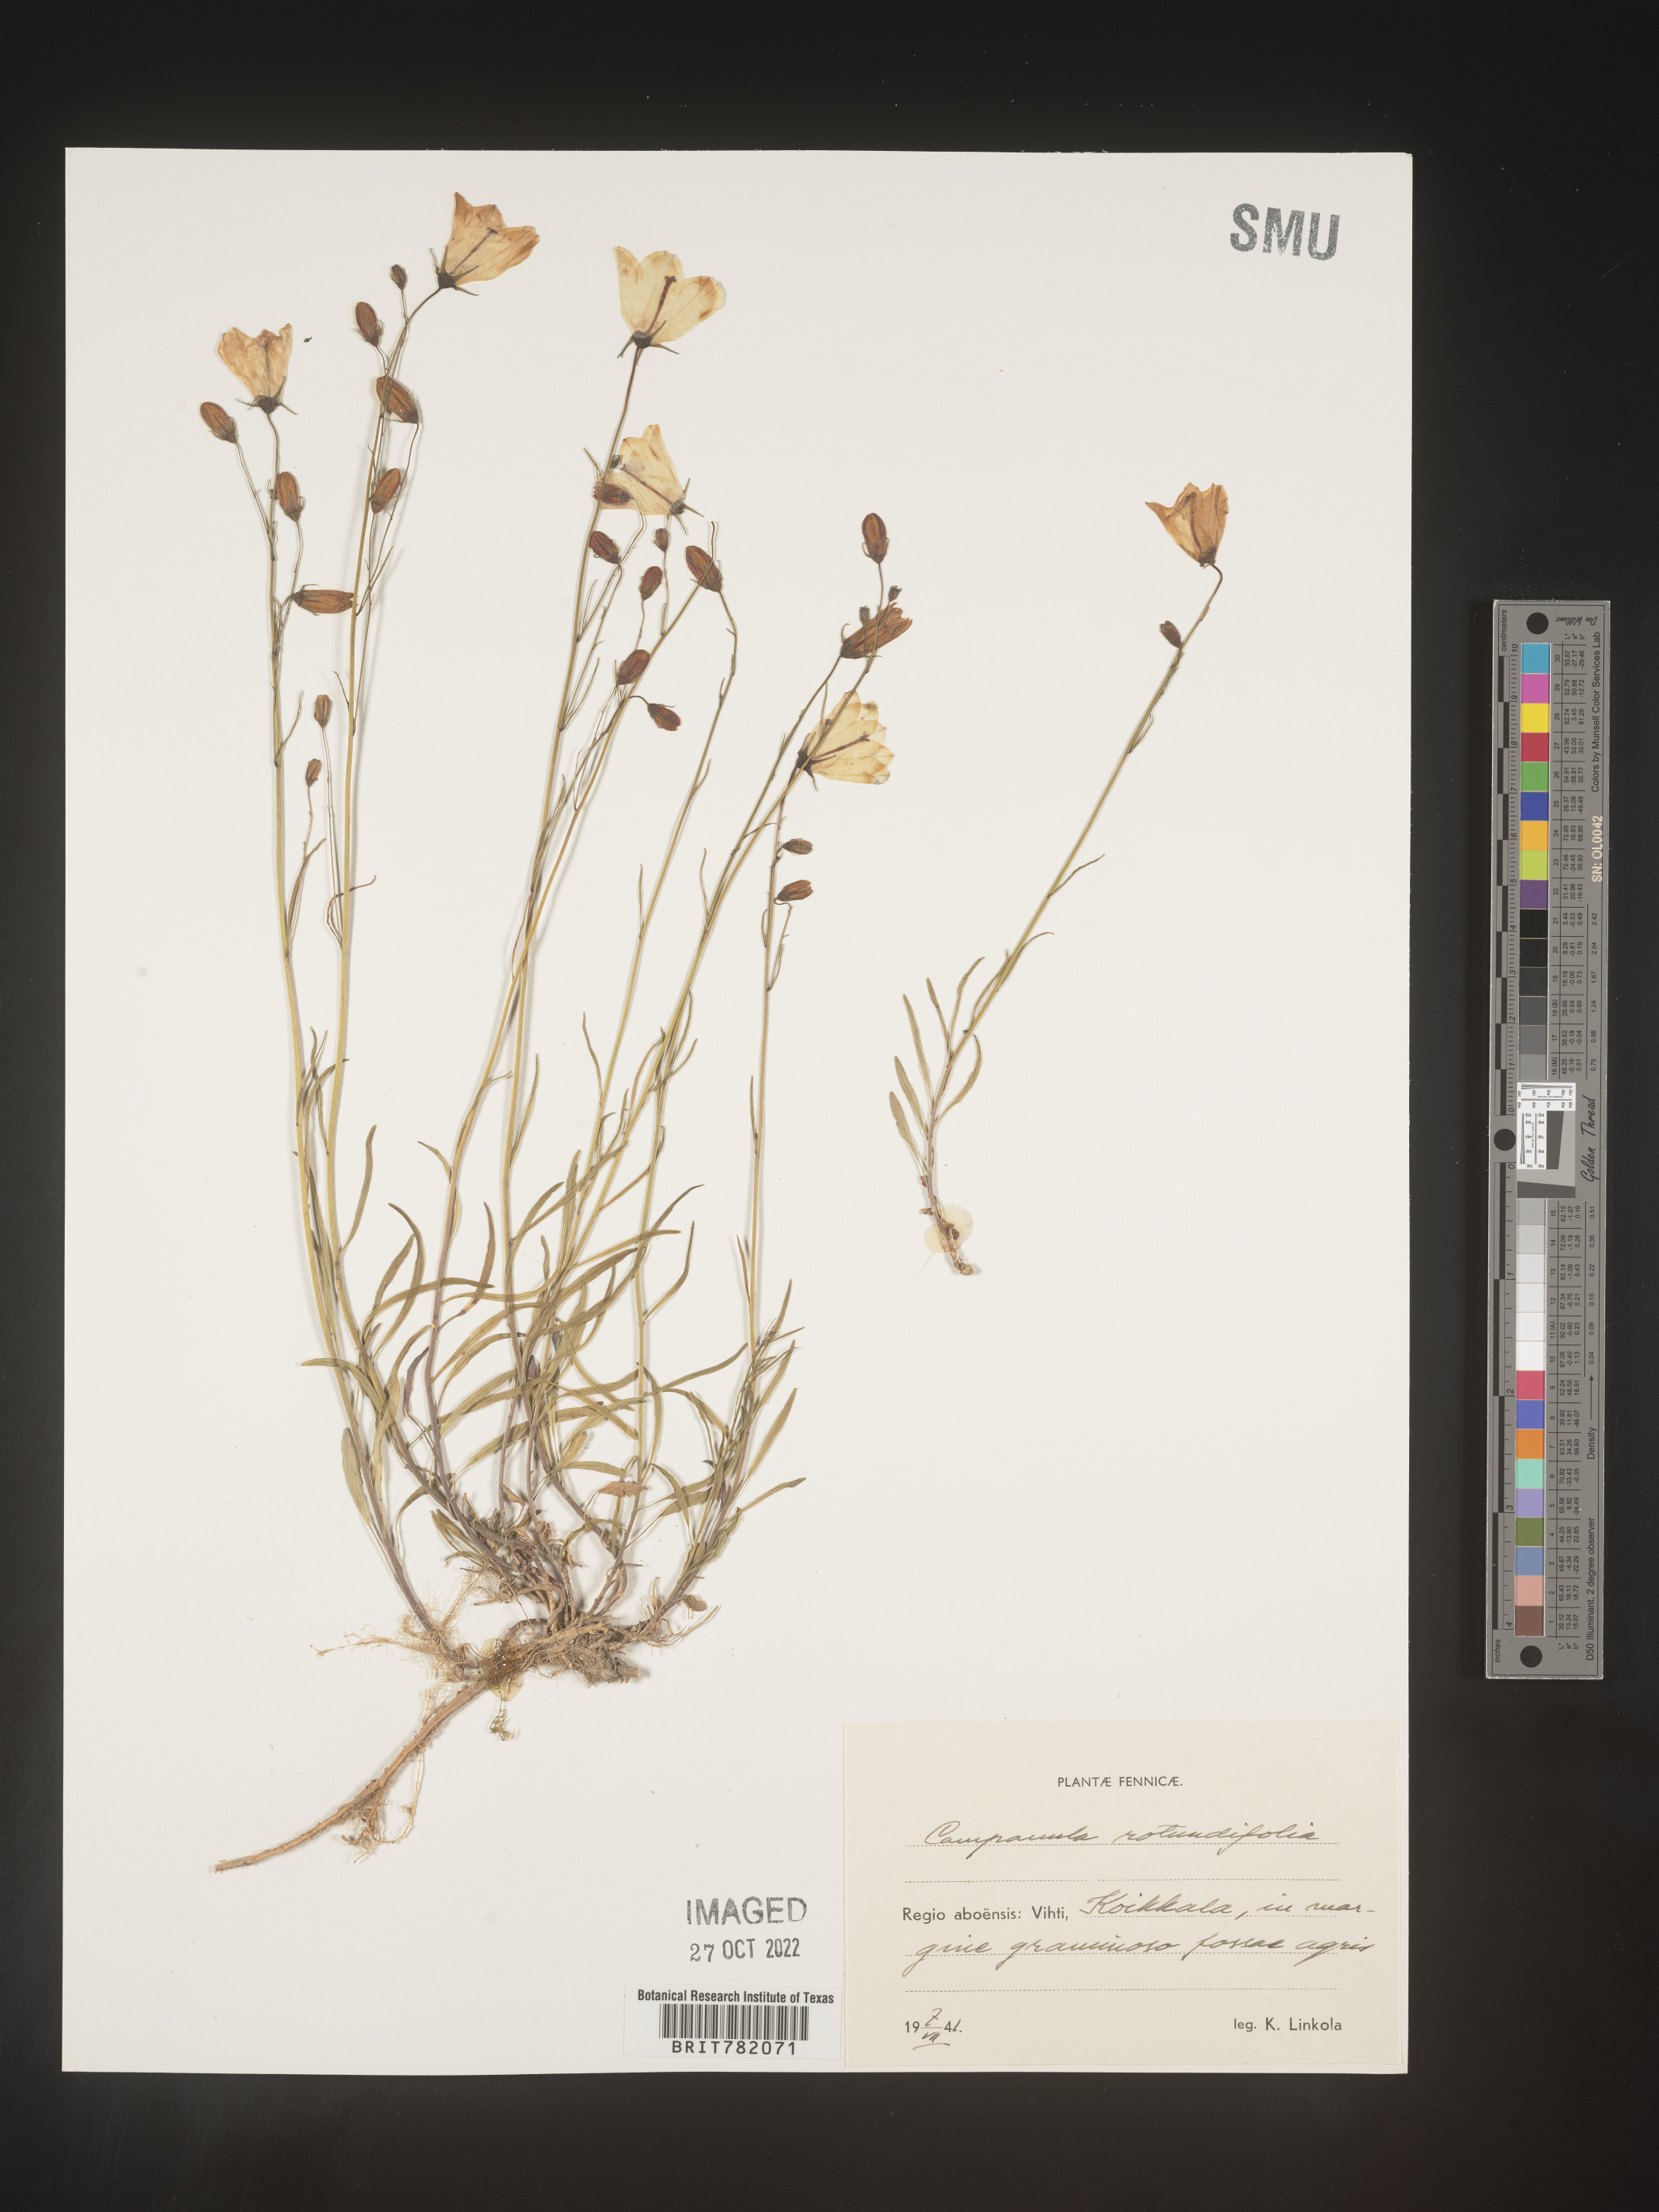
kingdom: Plantae
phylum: Tracheophyta
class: Magnoliopsida
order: Asterales
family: Campanulaceae
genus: Campanula
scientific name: Campanula rotundifolia
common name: Harebell
